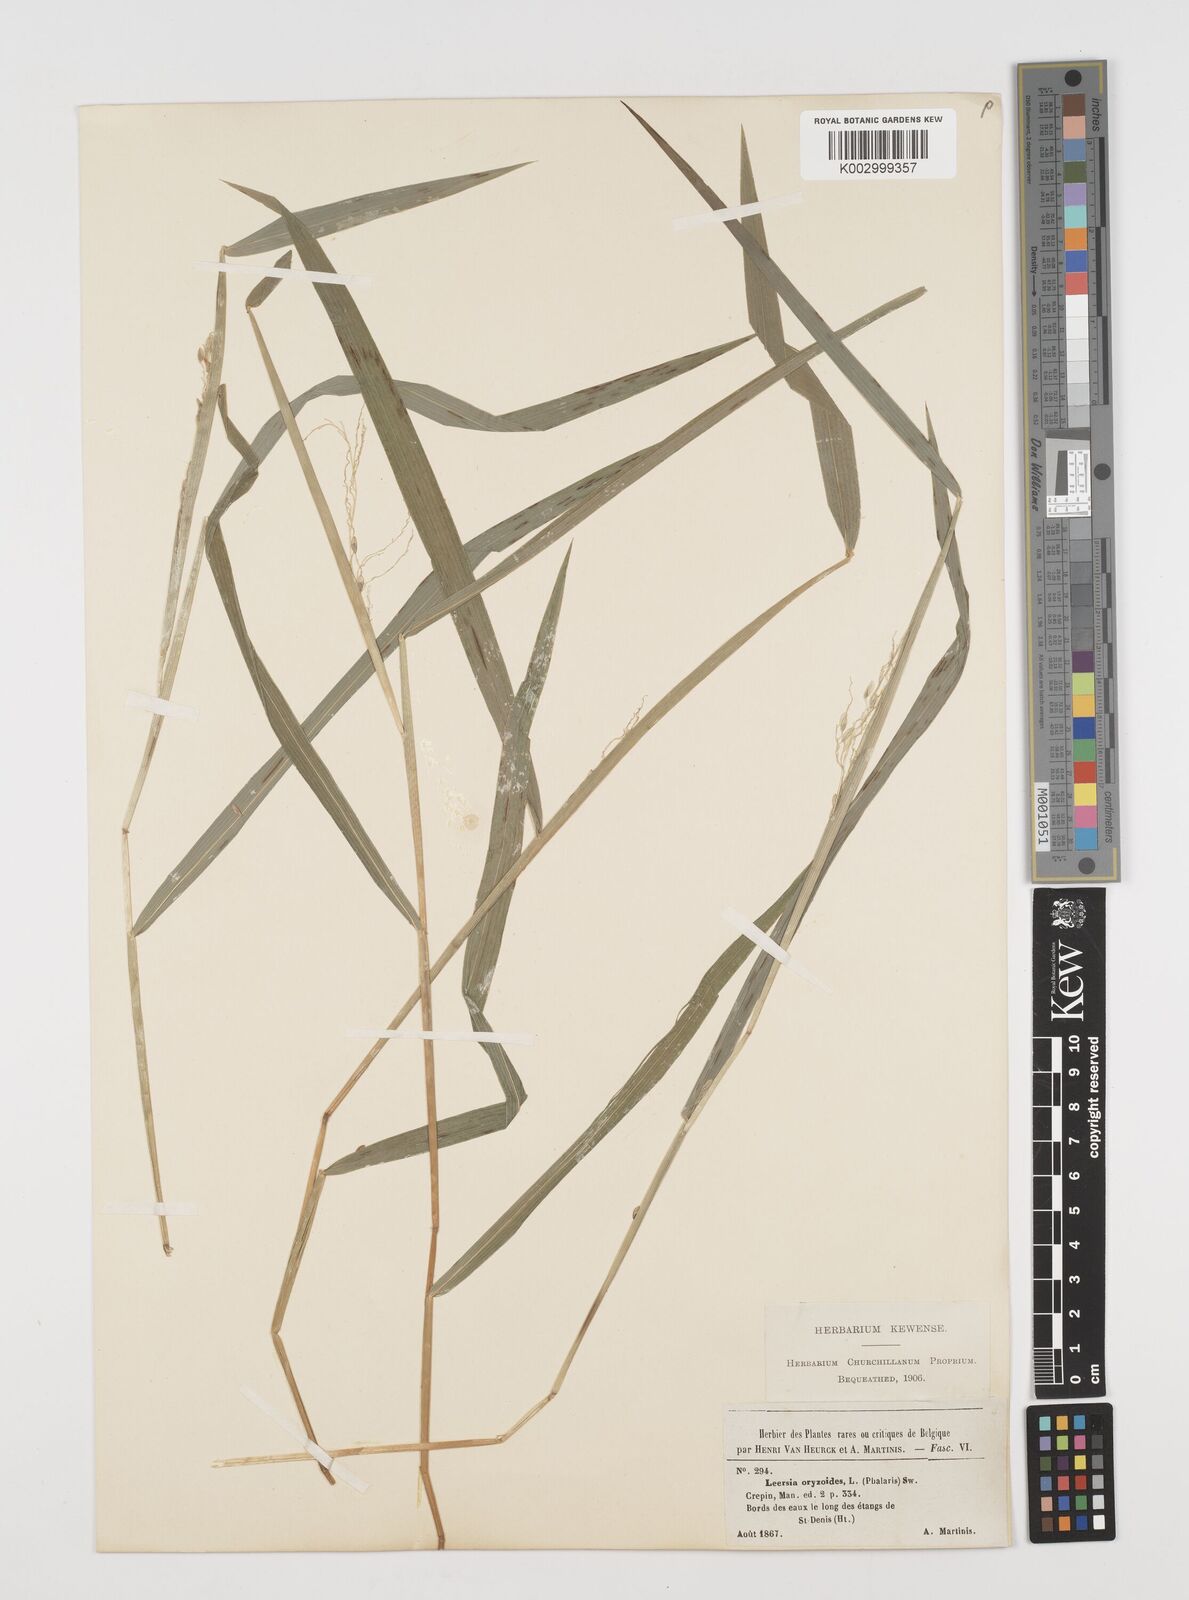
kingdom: Plantae
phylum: Tracheophyta
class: Liliopsida
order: Poales
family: Poaceae
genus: Leersia
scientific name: Leersia oryzoides
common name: Cut-grass
